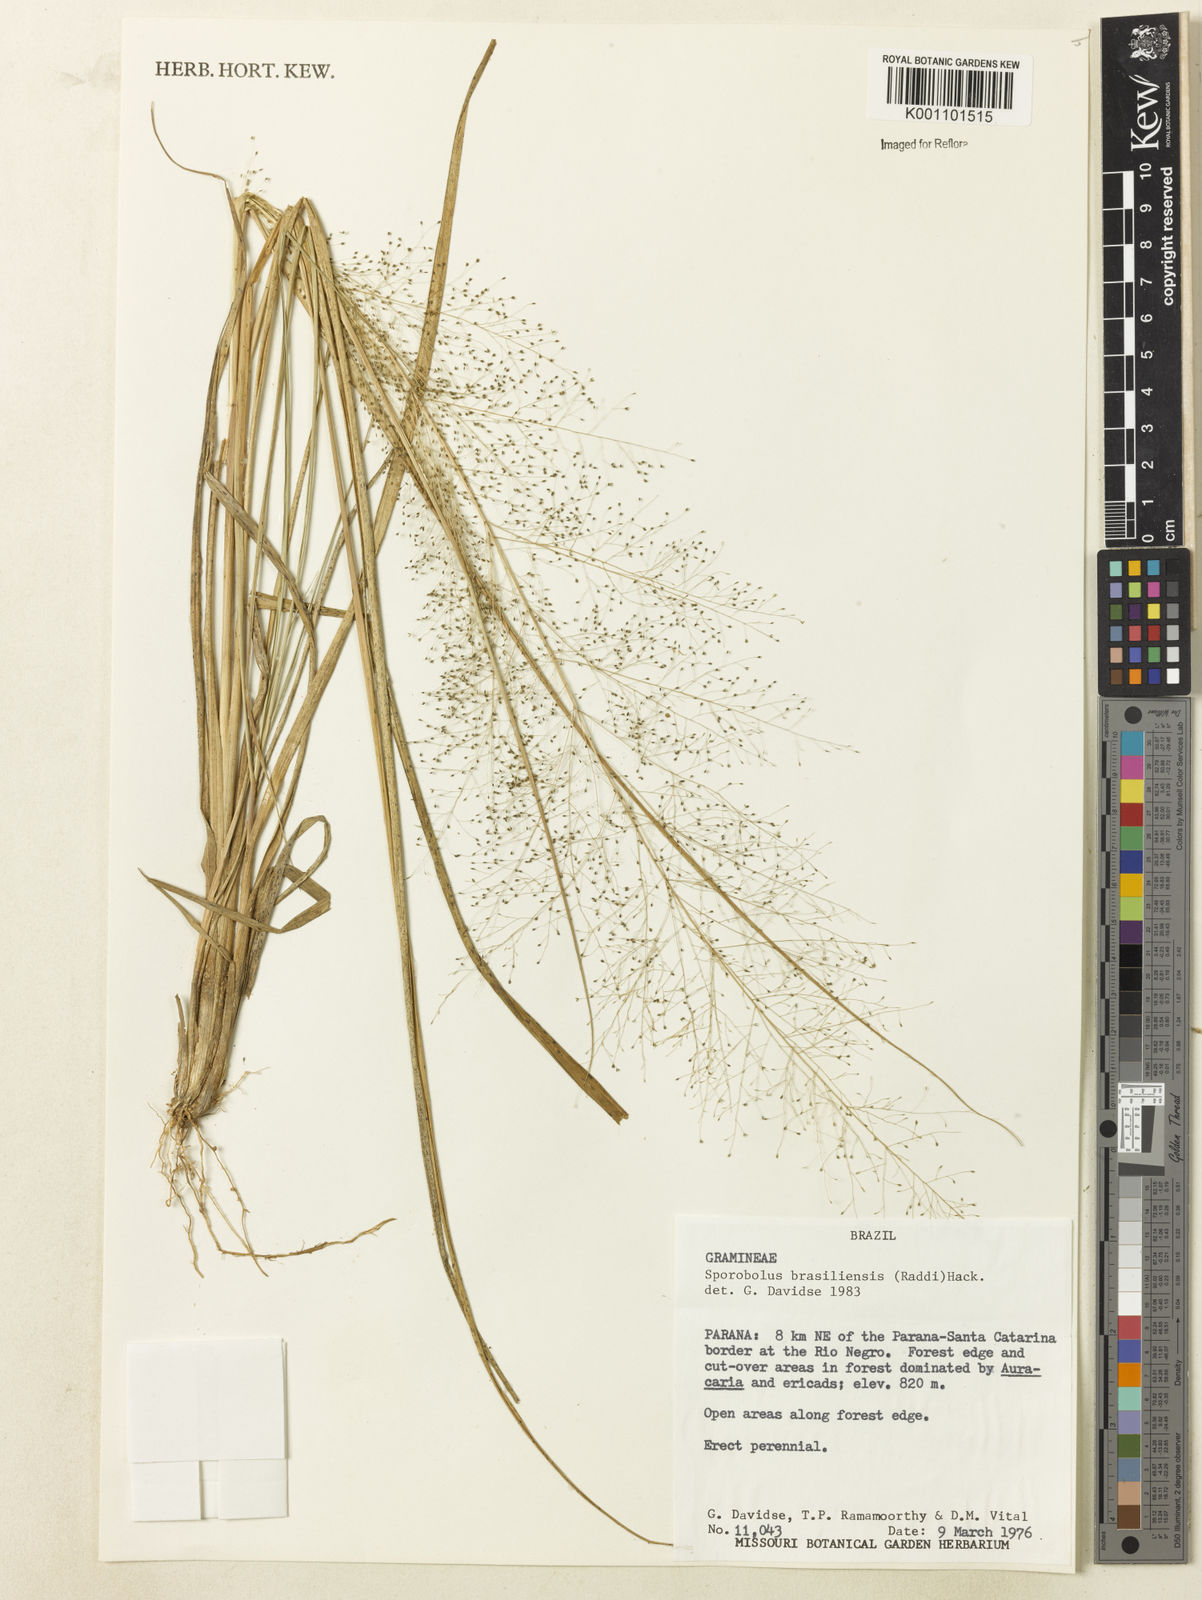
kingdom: Plantae
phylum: Tracheophyta
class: Liliopsida
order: Poales
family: Poaceae
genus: Eragrostis
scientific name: Eragrostis airoides
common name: Darnel lovegrass
